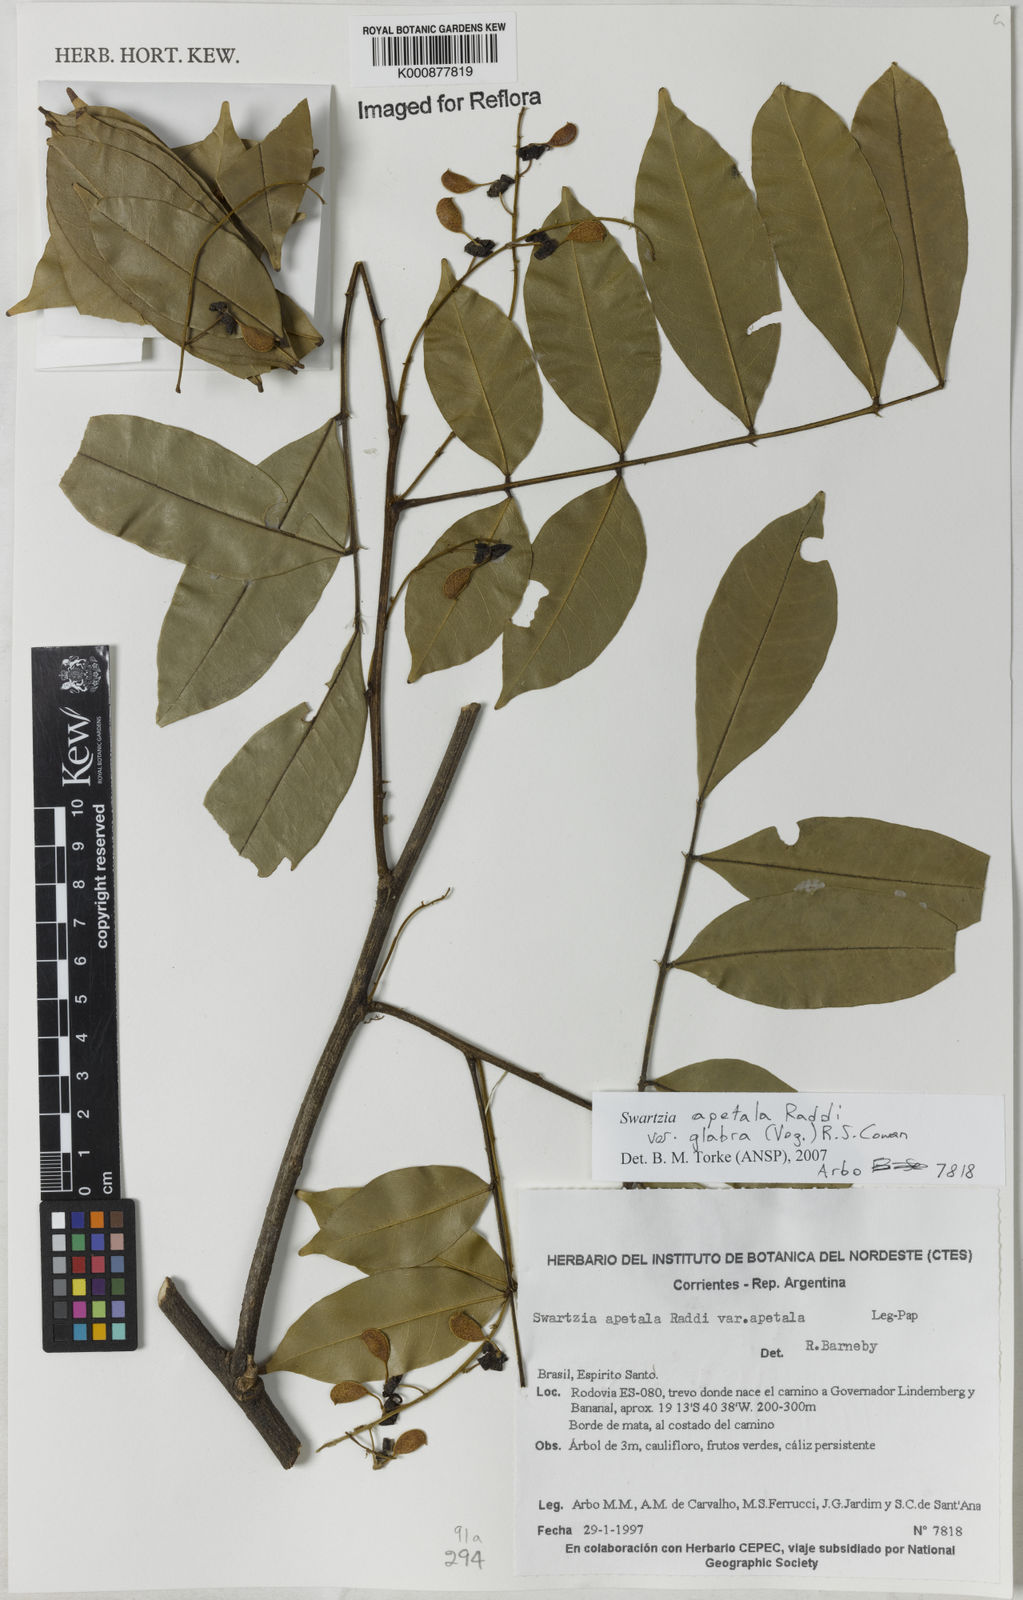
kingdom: Plantae
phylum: Tracheophyta
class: Magnoliopsida
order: Fabales
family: Fabaceae
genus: Swartzia
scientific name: Swartzia apetala
